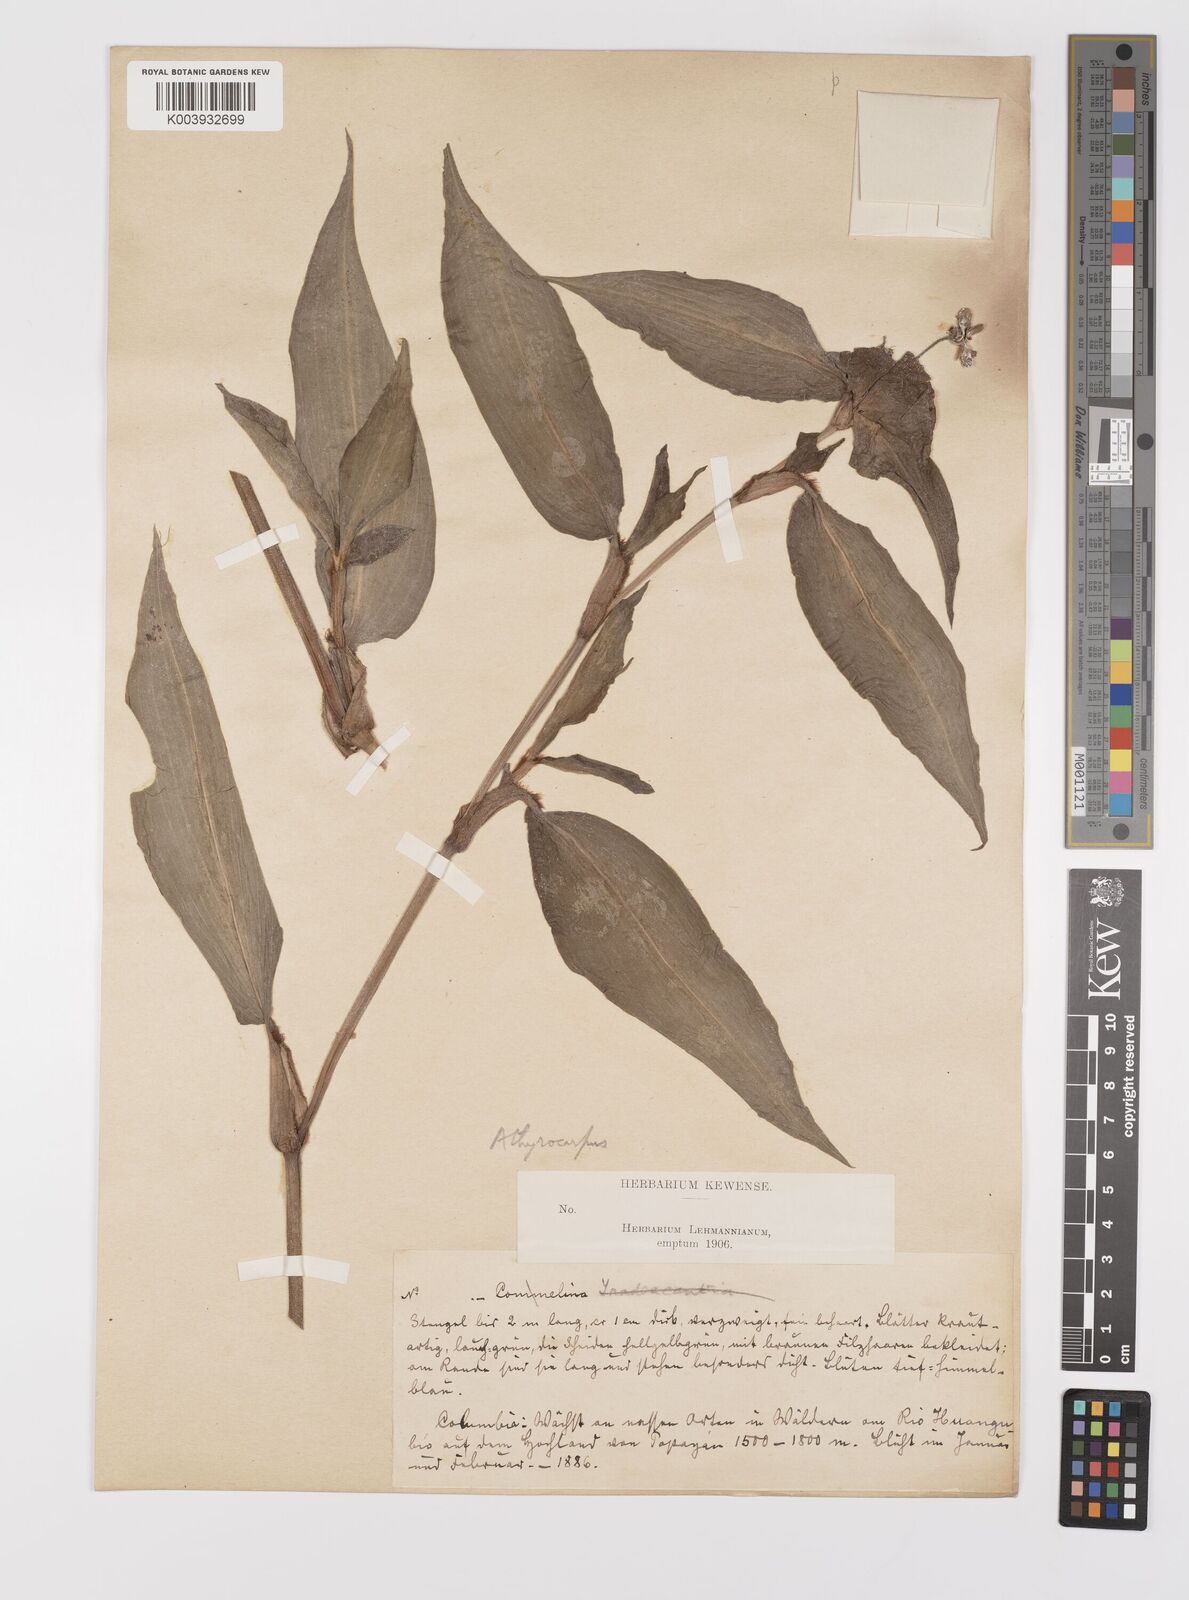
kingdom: Plantae
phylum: Tracheophyta
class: Liliopsida
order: Commelinales
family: Commelinaceae
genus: Commelina
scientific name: Commelina obliqua
